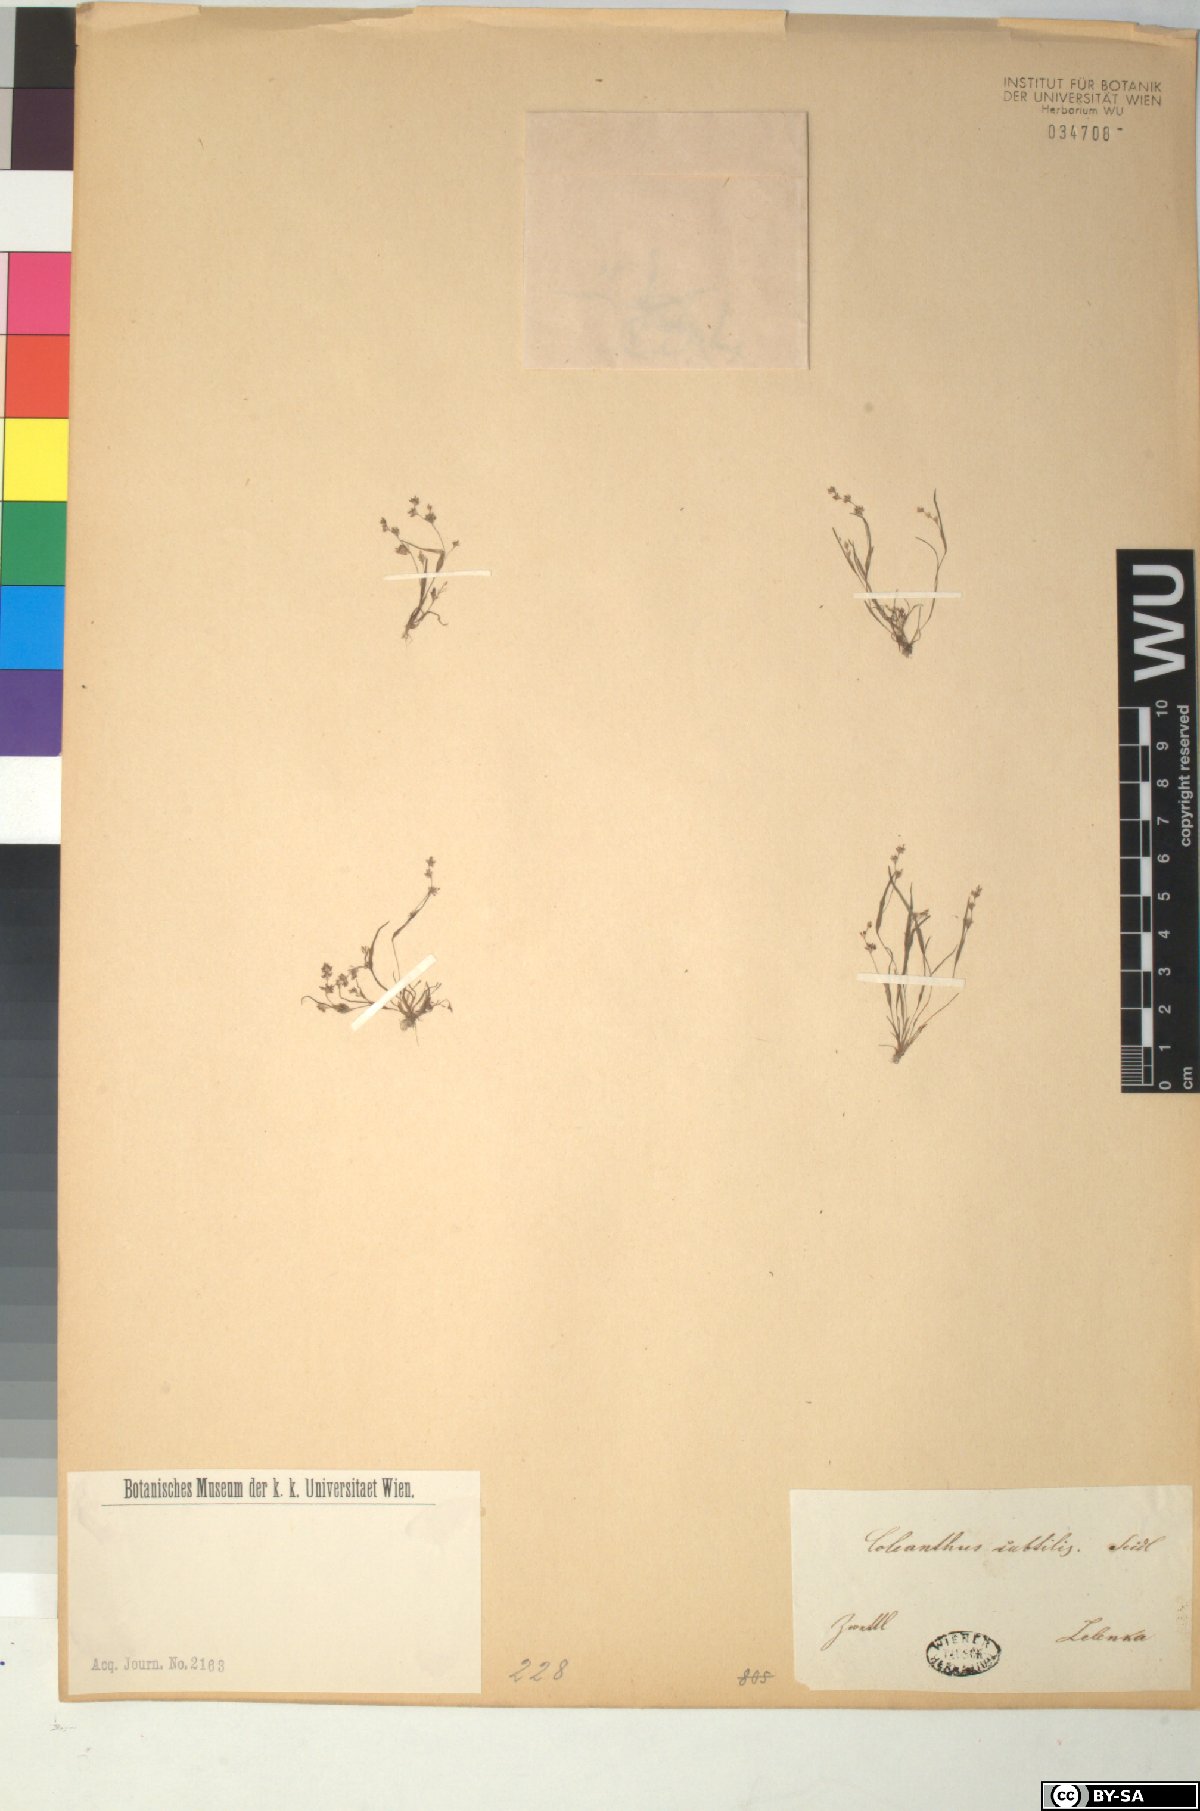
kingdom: Plantae
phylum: Tracheophyta
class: Liliopsida
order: Poales
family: Poaceae
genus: Coleanthus
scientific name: Coleanthus subtilis
